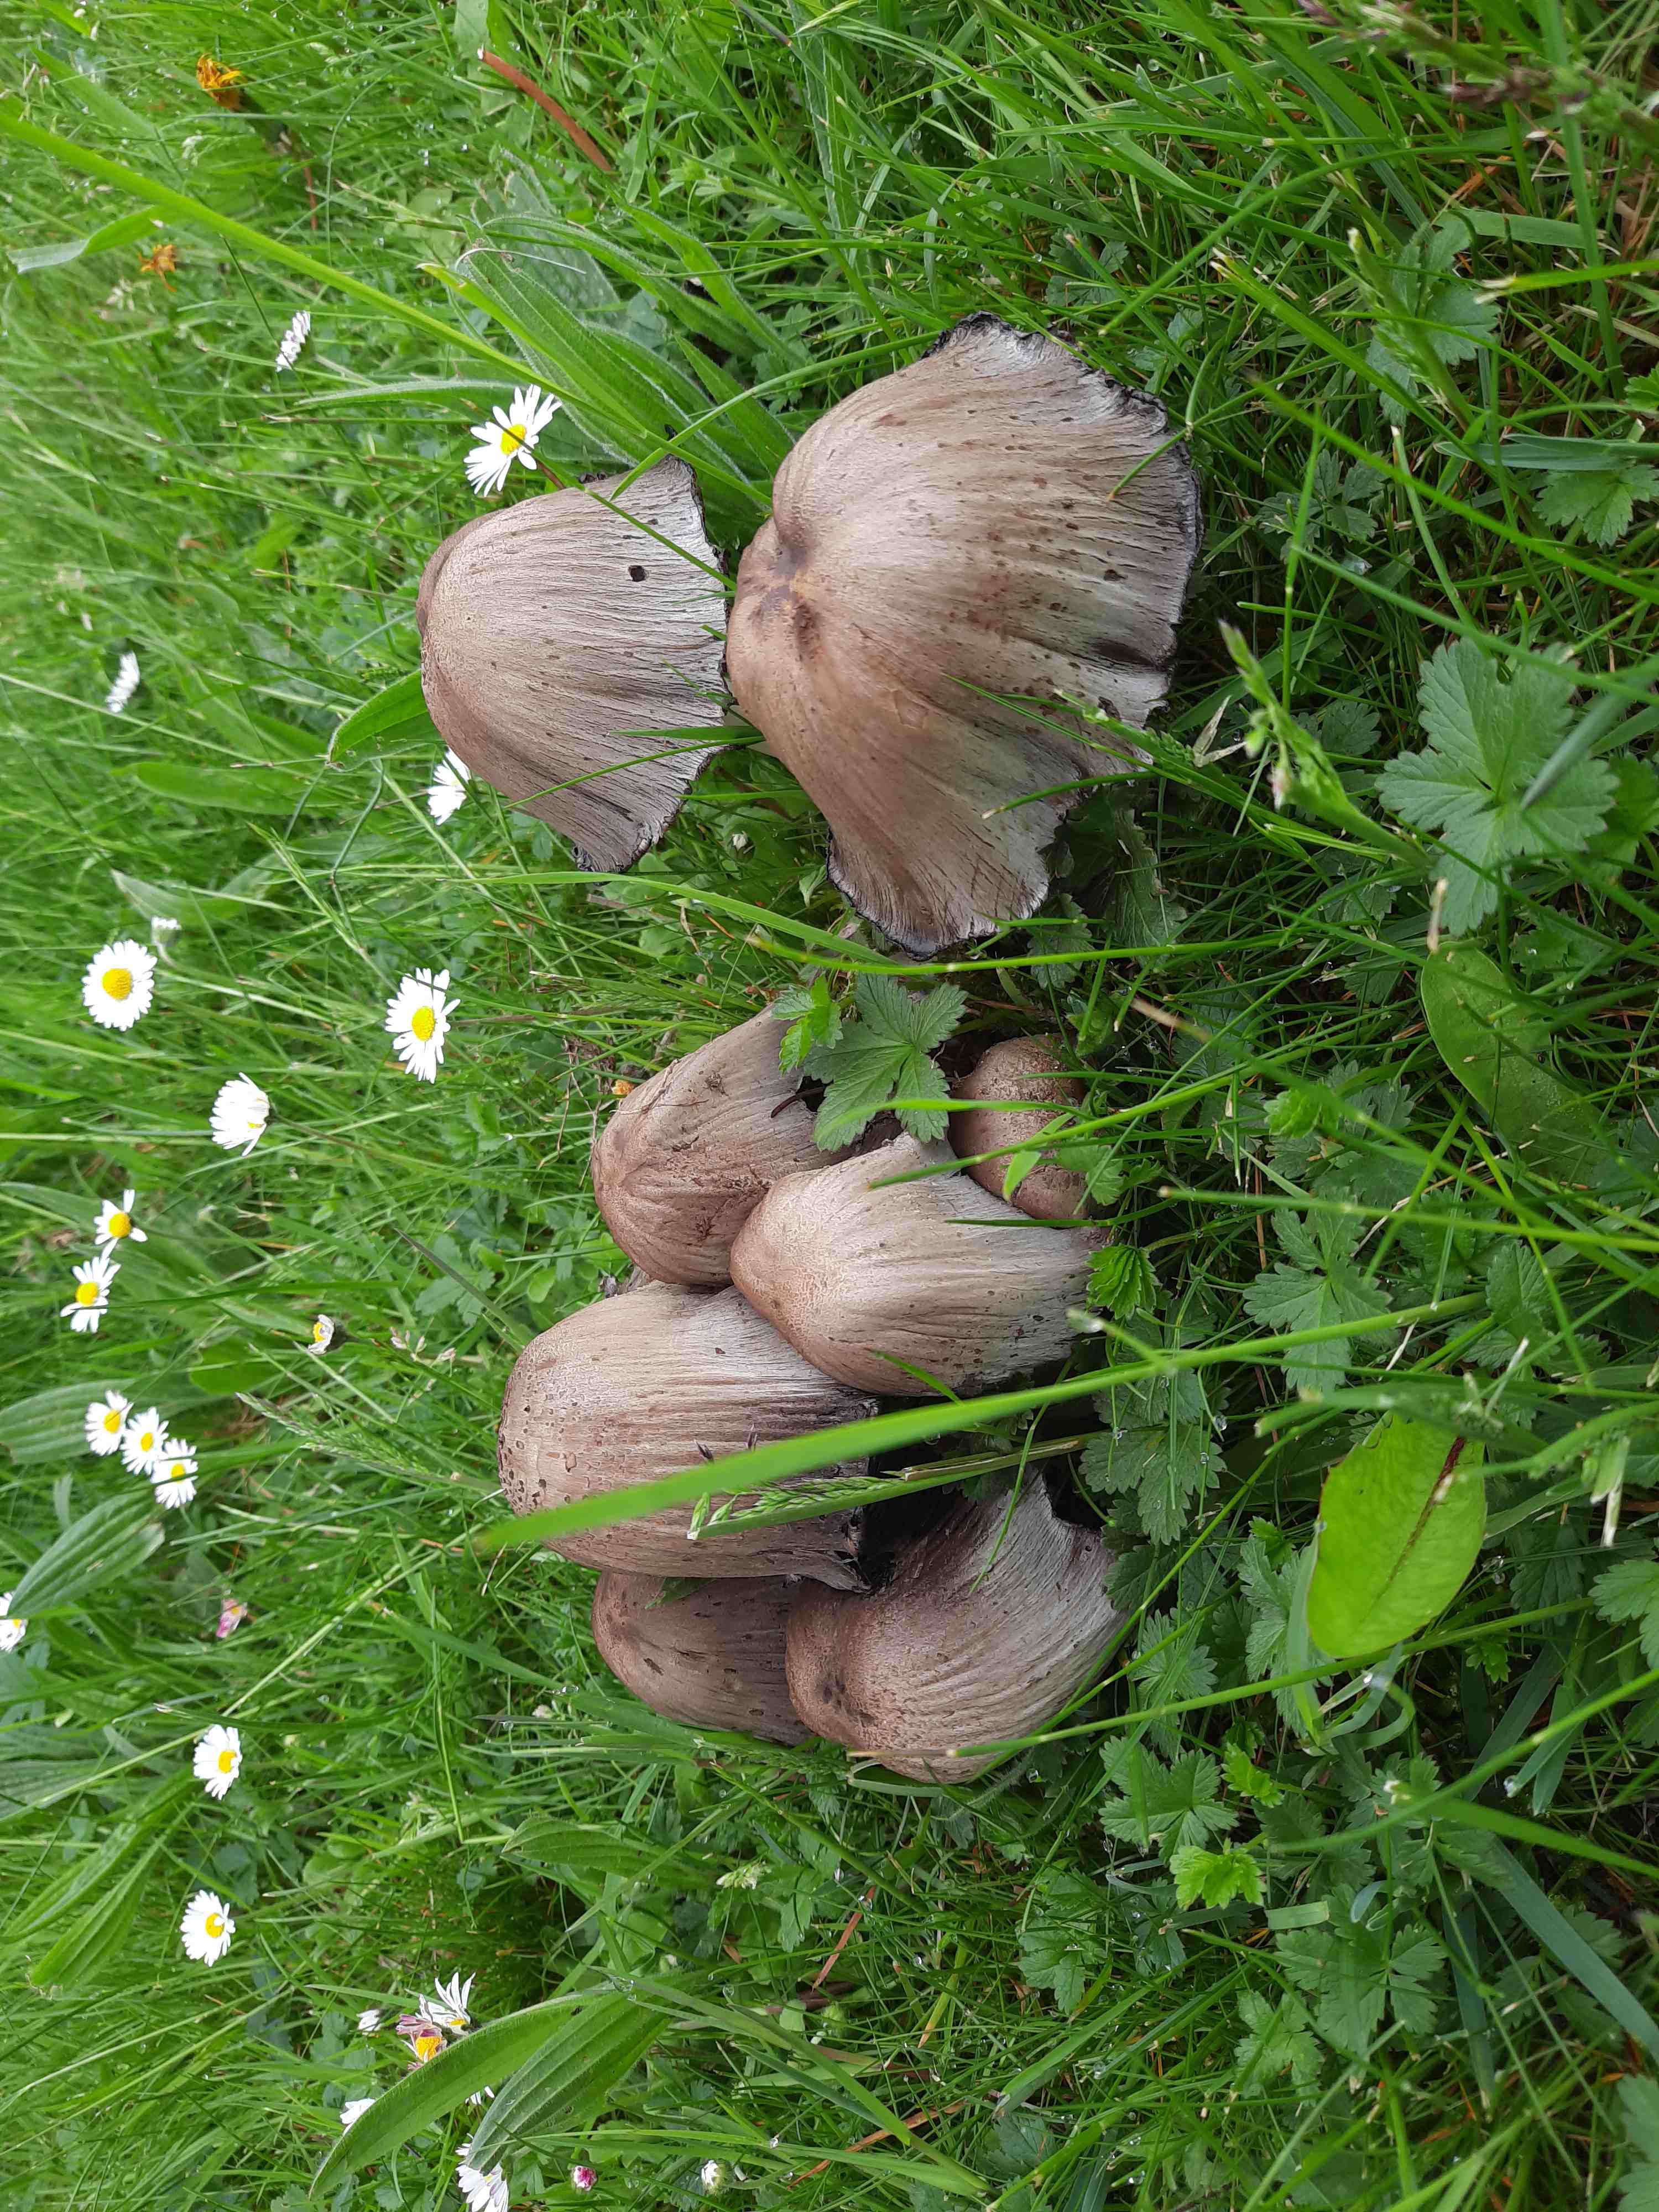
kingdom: Fungi
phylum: Basidiomycota
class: Agaricomycetes
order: Agaricales
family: Psathyrellaceae
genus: Coprinopsis
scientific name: Coprinopsis atramentaria
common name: almindelig blækhat
